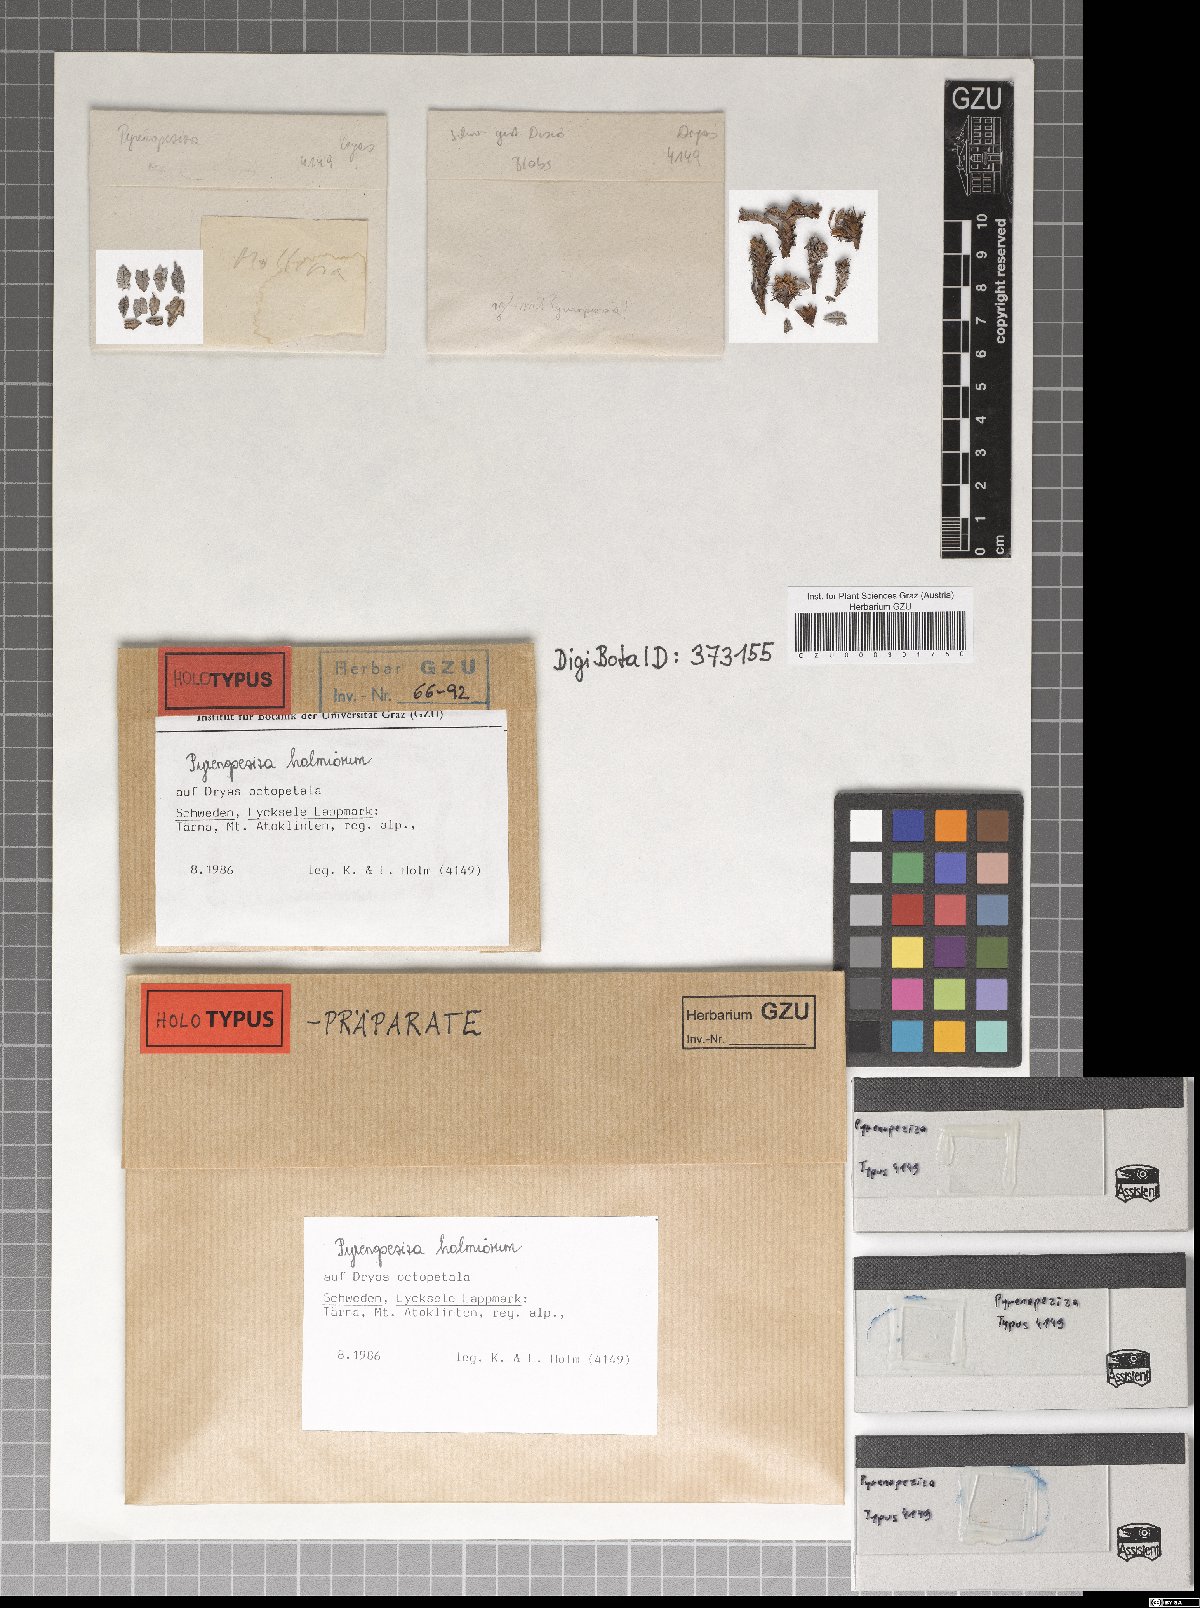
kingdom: Fungi
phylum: Ascomycota
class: Leotiomycetes
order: Helotiales
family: Ploettnerulaceae
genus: Pyrenopeziza
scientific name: Pyrenopeziza holmiorum
